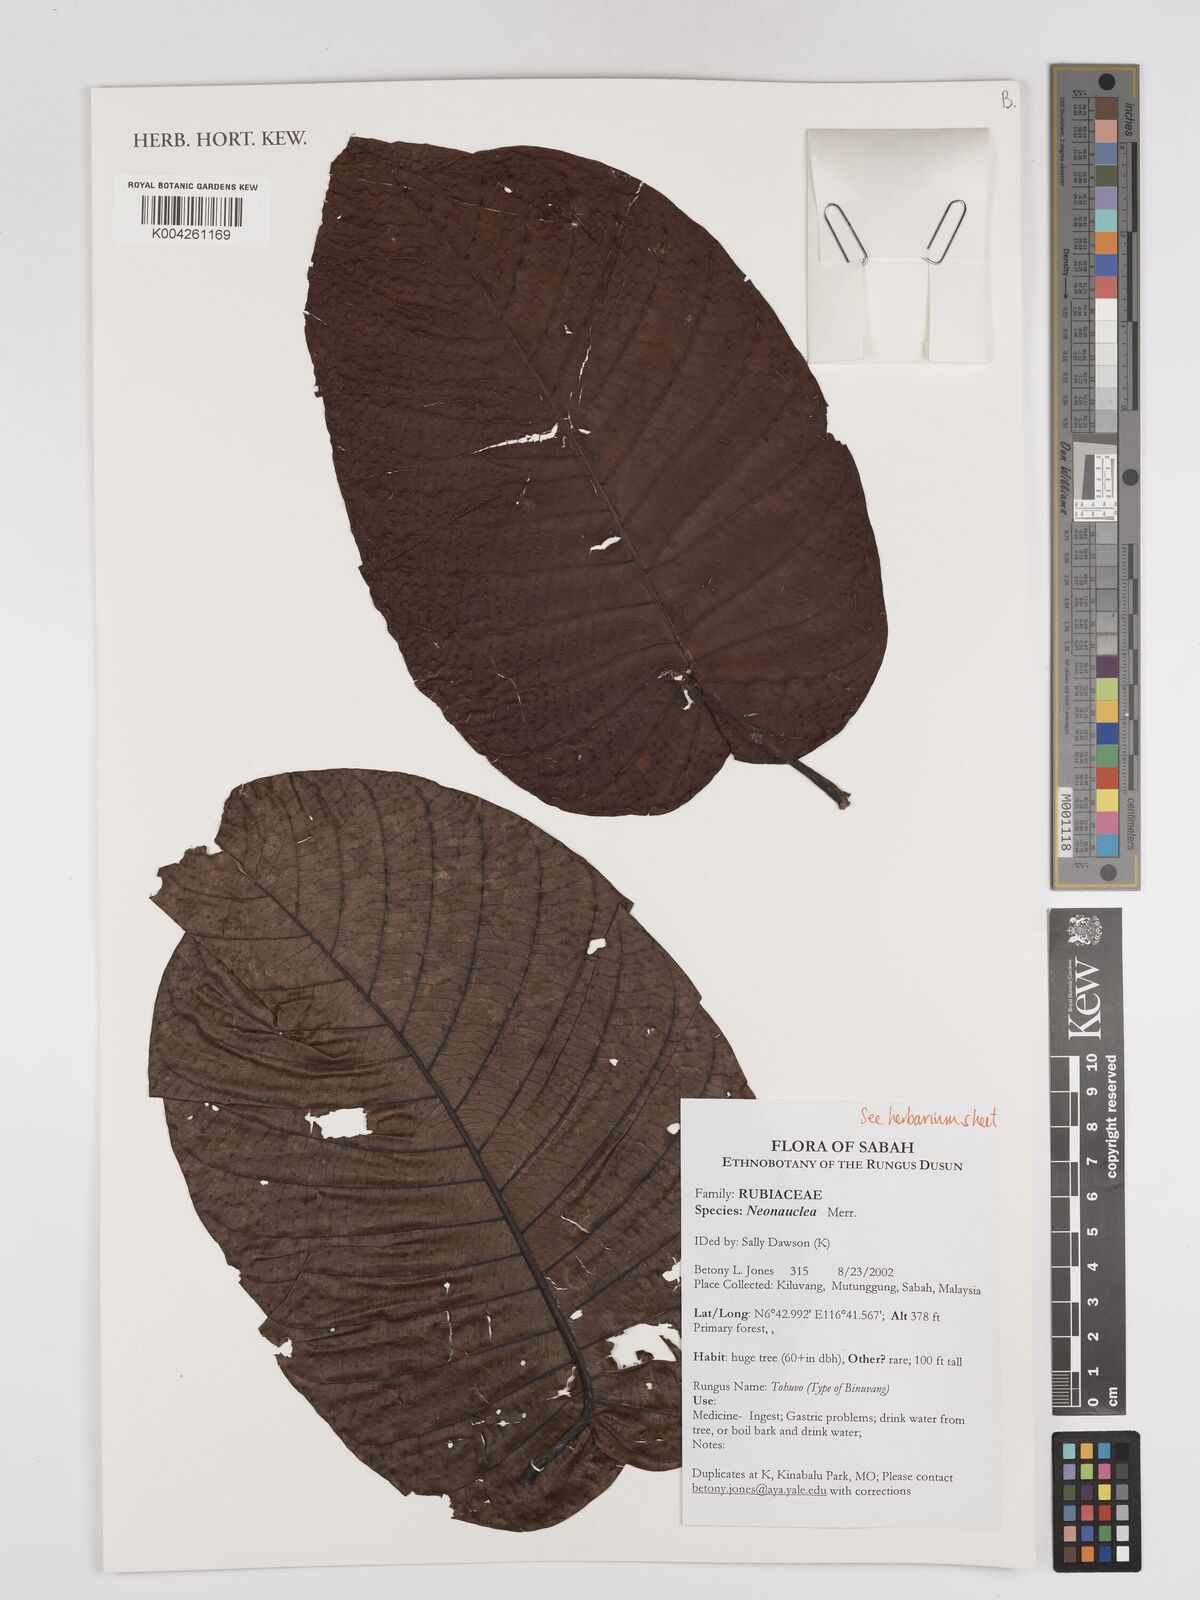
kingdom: Plantae
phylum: Tracheophyta
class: Magnoliopsida
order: Gentianales
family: Rubiaceae
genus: Neonauclea
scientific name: Neonauclea
